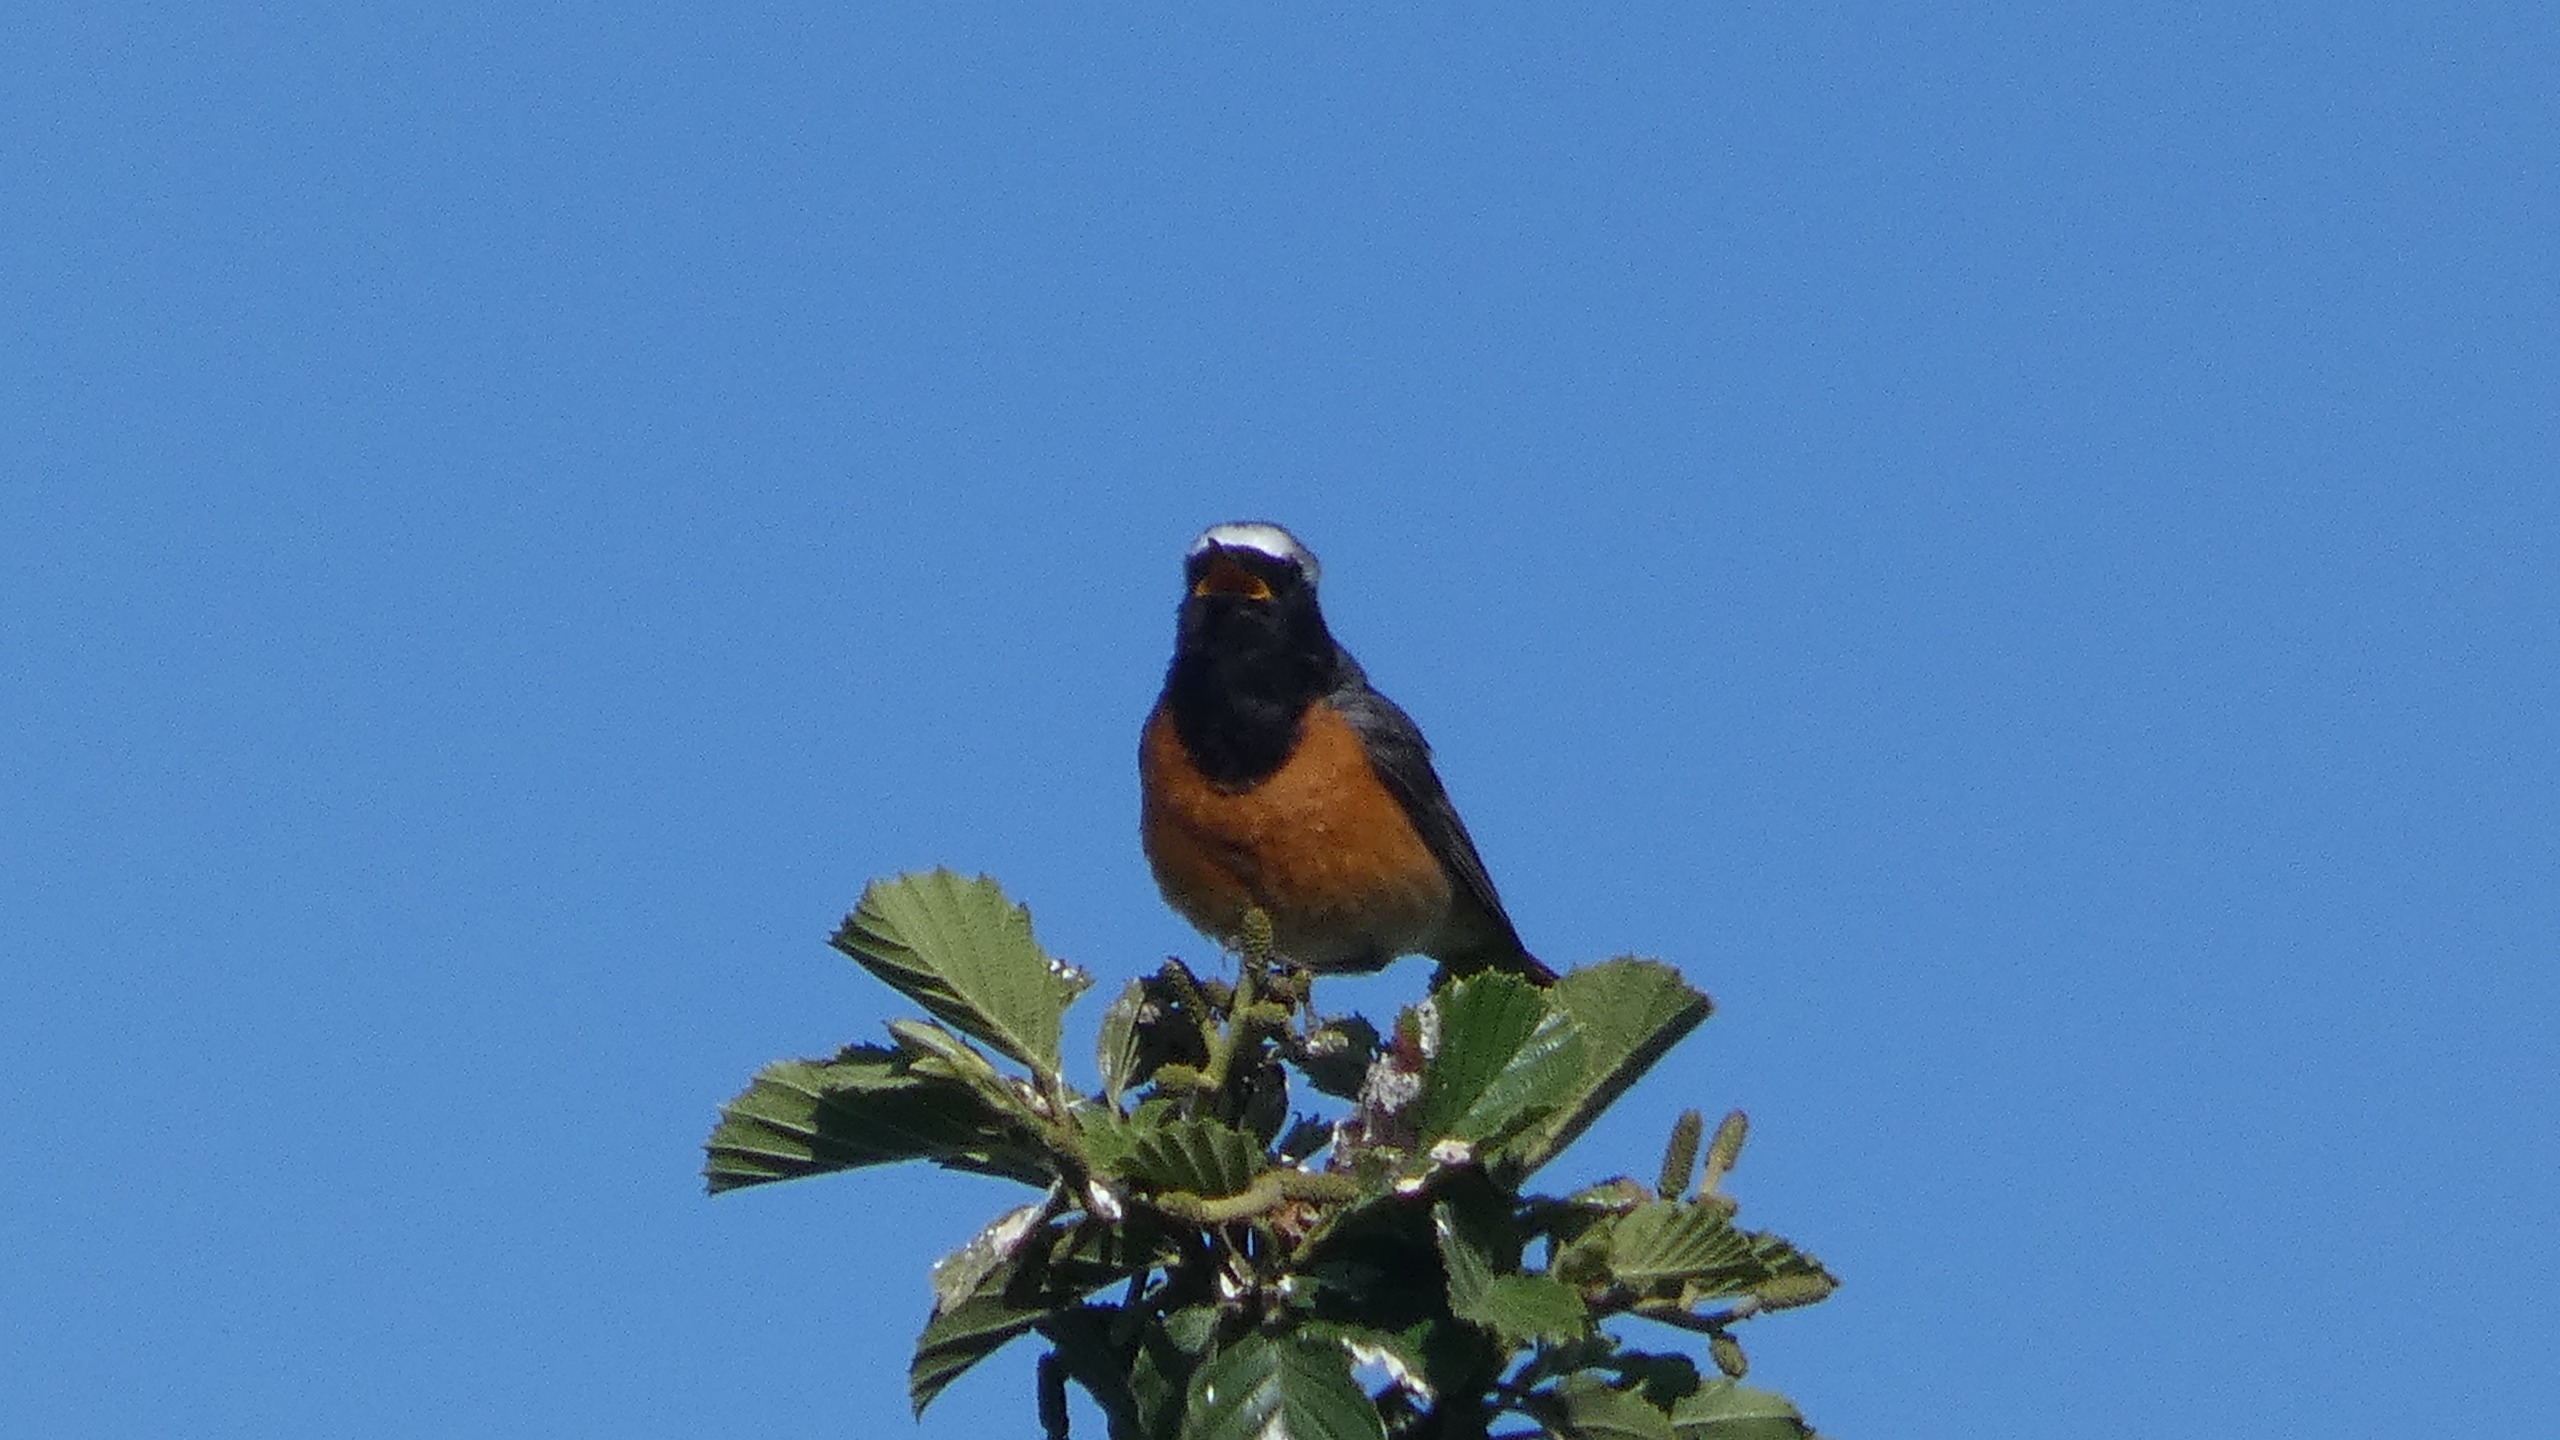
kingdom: Animalia
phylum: Chordata
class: Aves
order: Passeriformes
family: Muscicapidae
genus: Phoenicurus
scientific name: Phoenicurus phoenicurus
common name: Rødstjert
